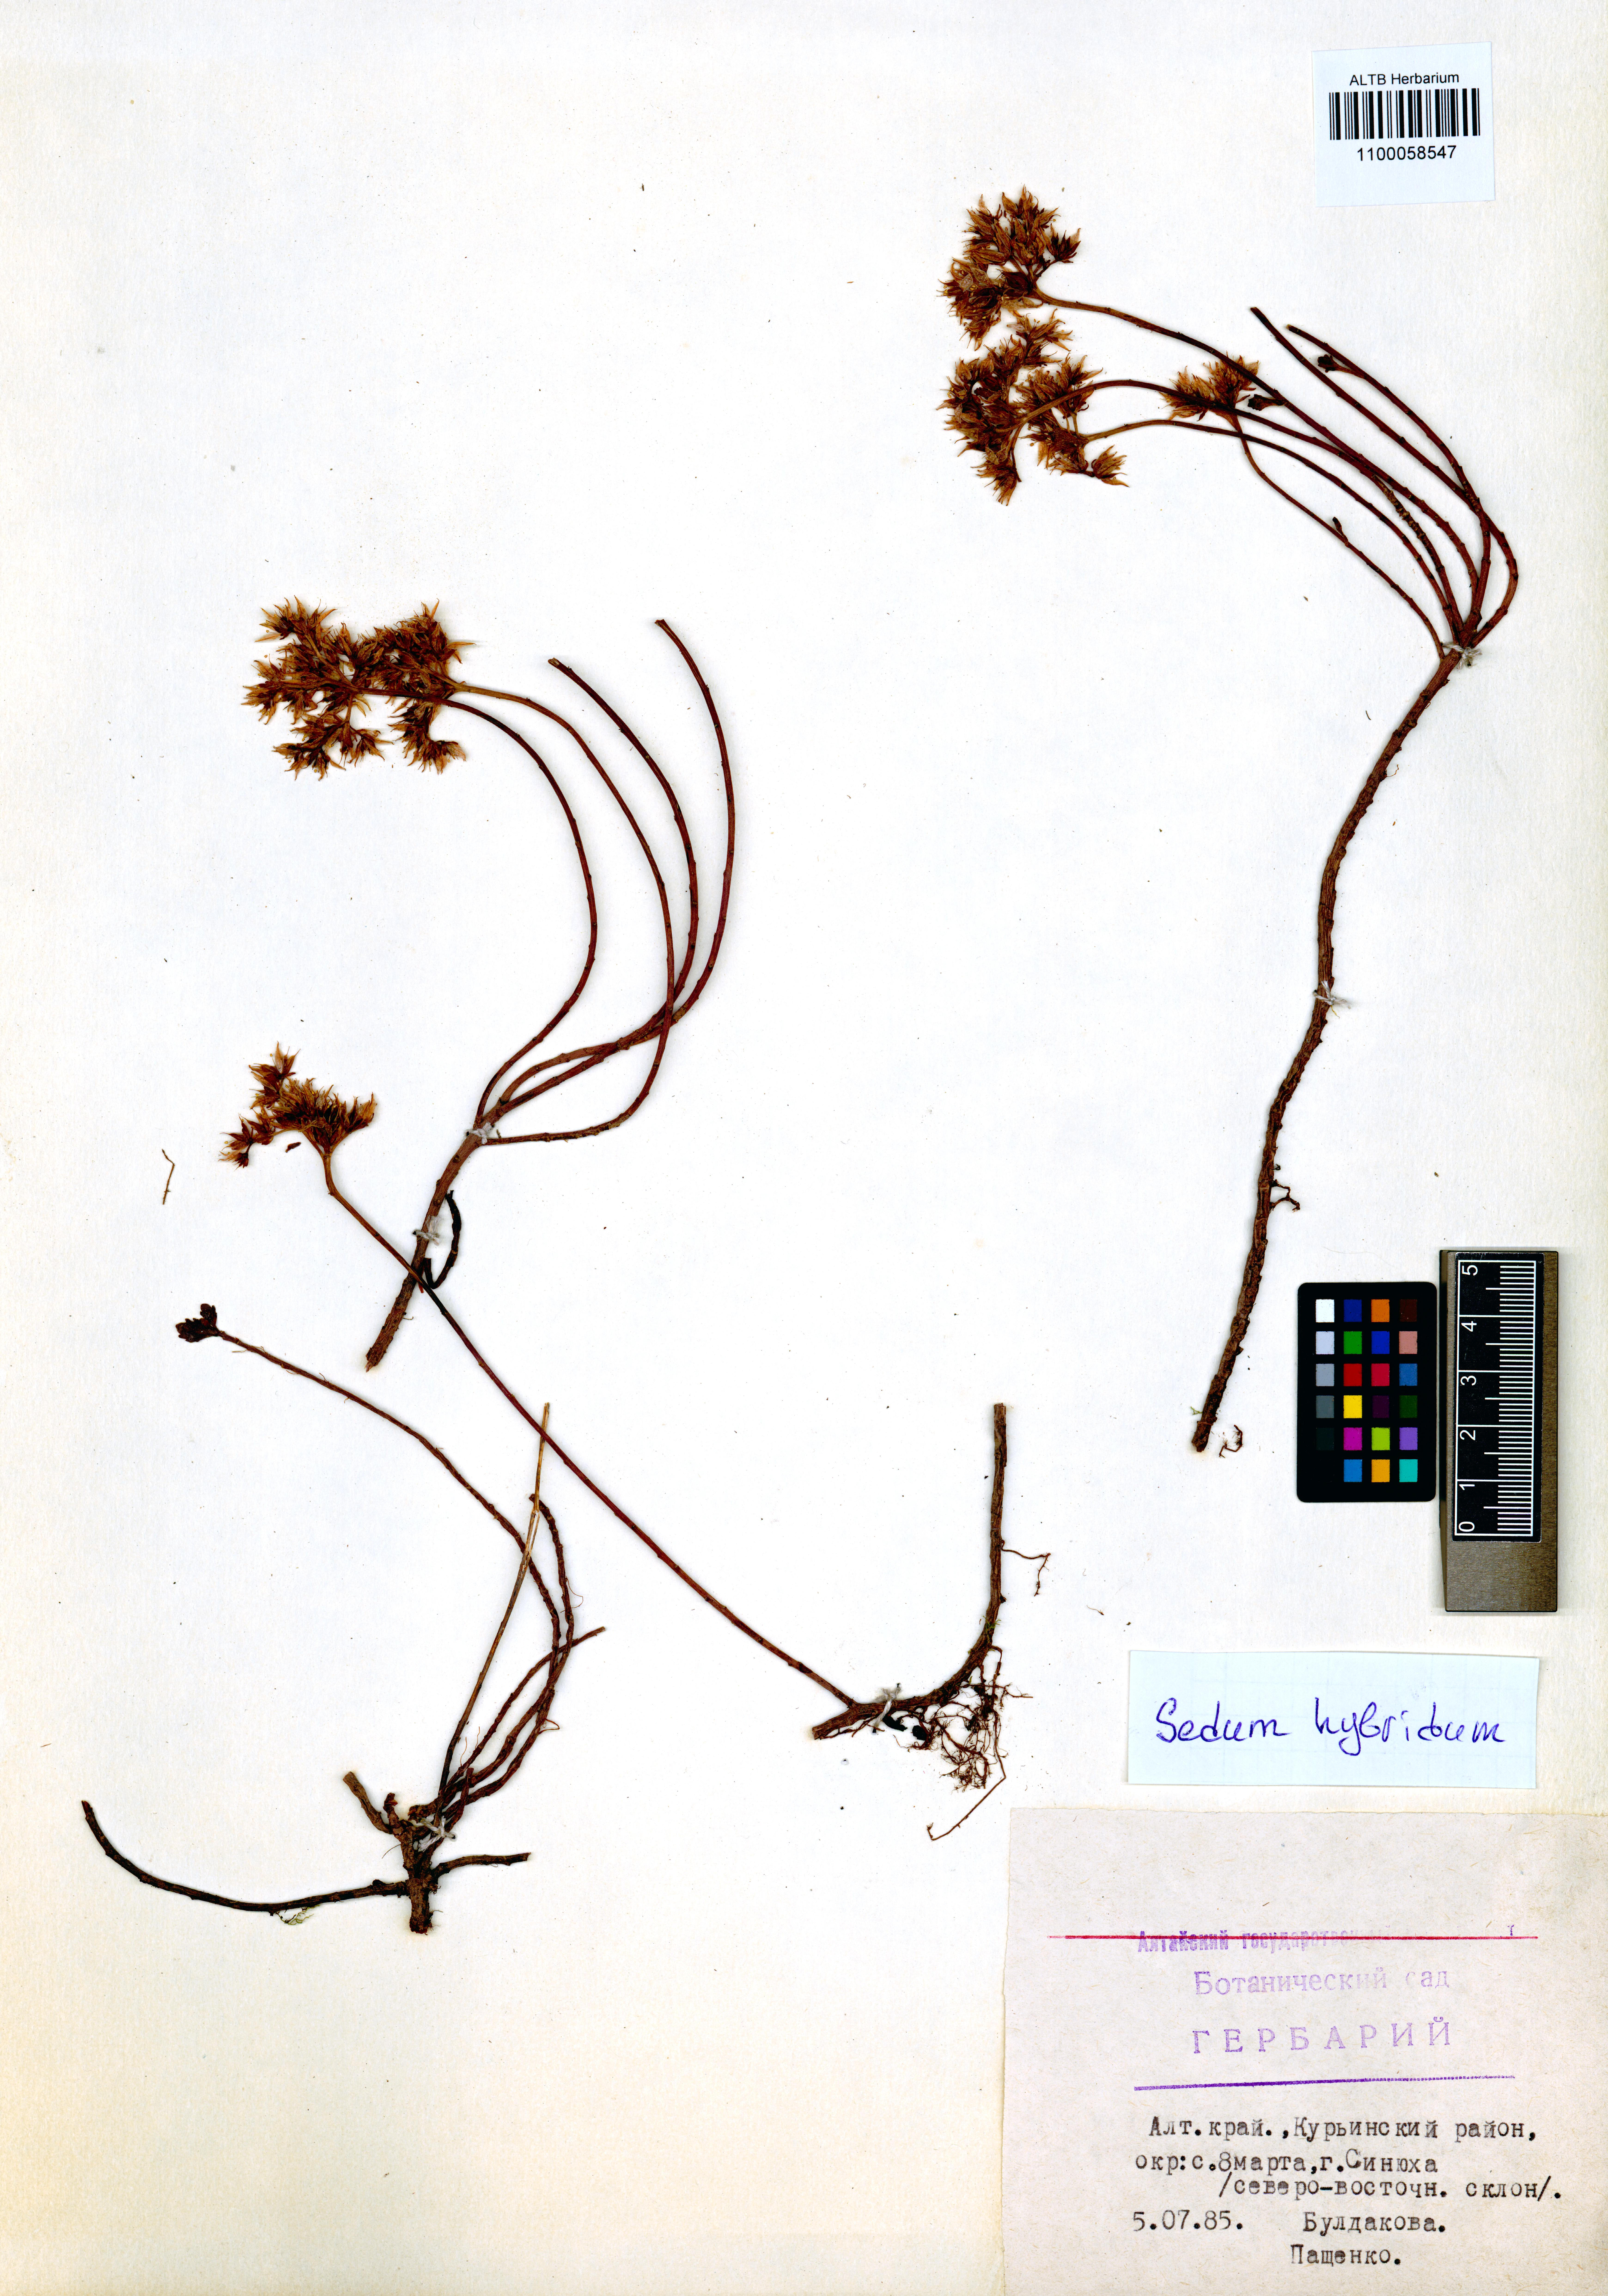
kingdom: Plantae
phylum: Tracheophyta
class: Magnoliopsida
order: Saxifragales
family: Crassulaceae
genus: Phedimus
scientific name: Phedimus hybridus
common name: Hybrid stonecrop
